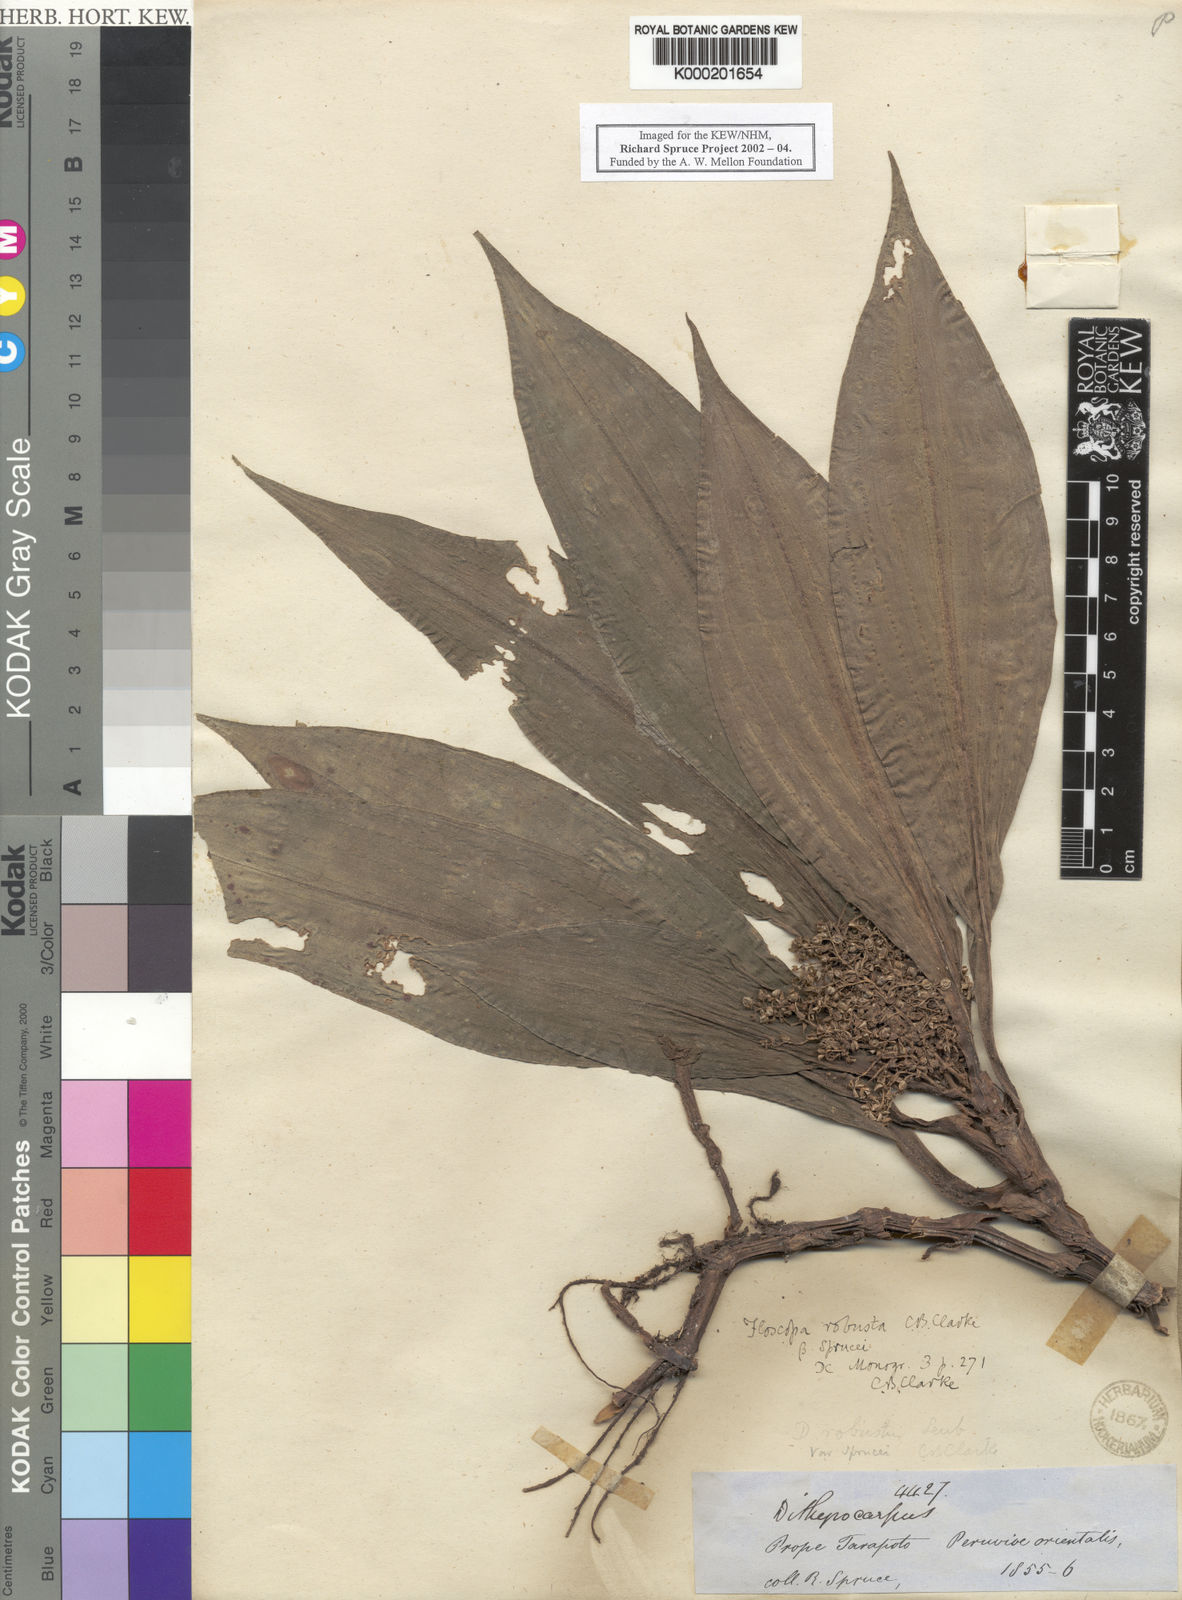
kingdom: Plantae
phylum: Tracheophyta
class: Liliopsida
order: Commelinales
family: Commelinaceae
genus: Floscopa
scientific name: Floscopa peruviana
